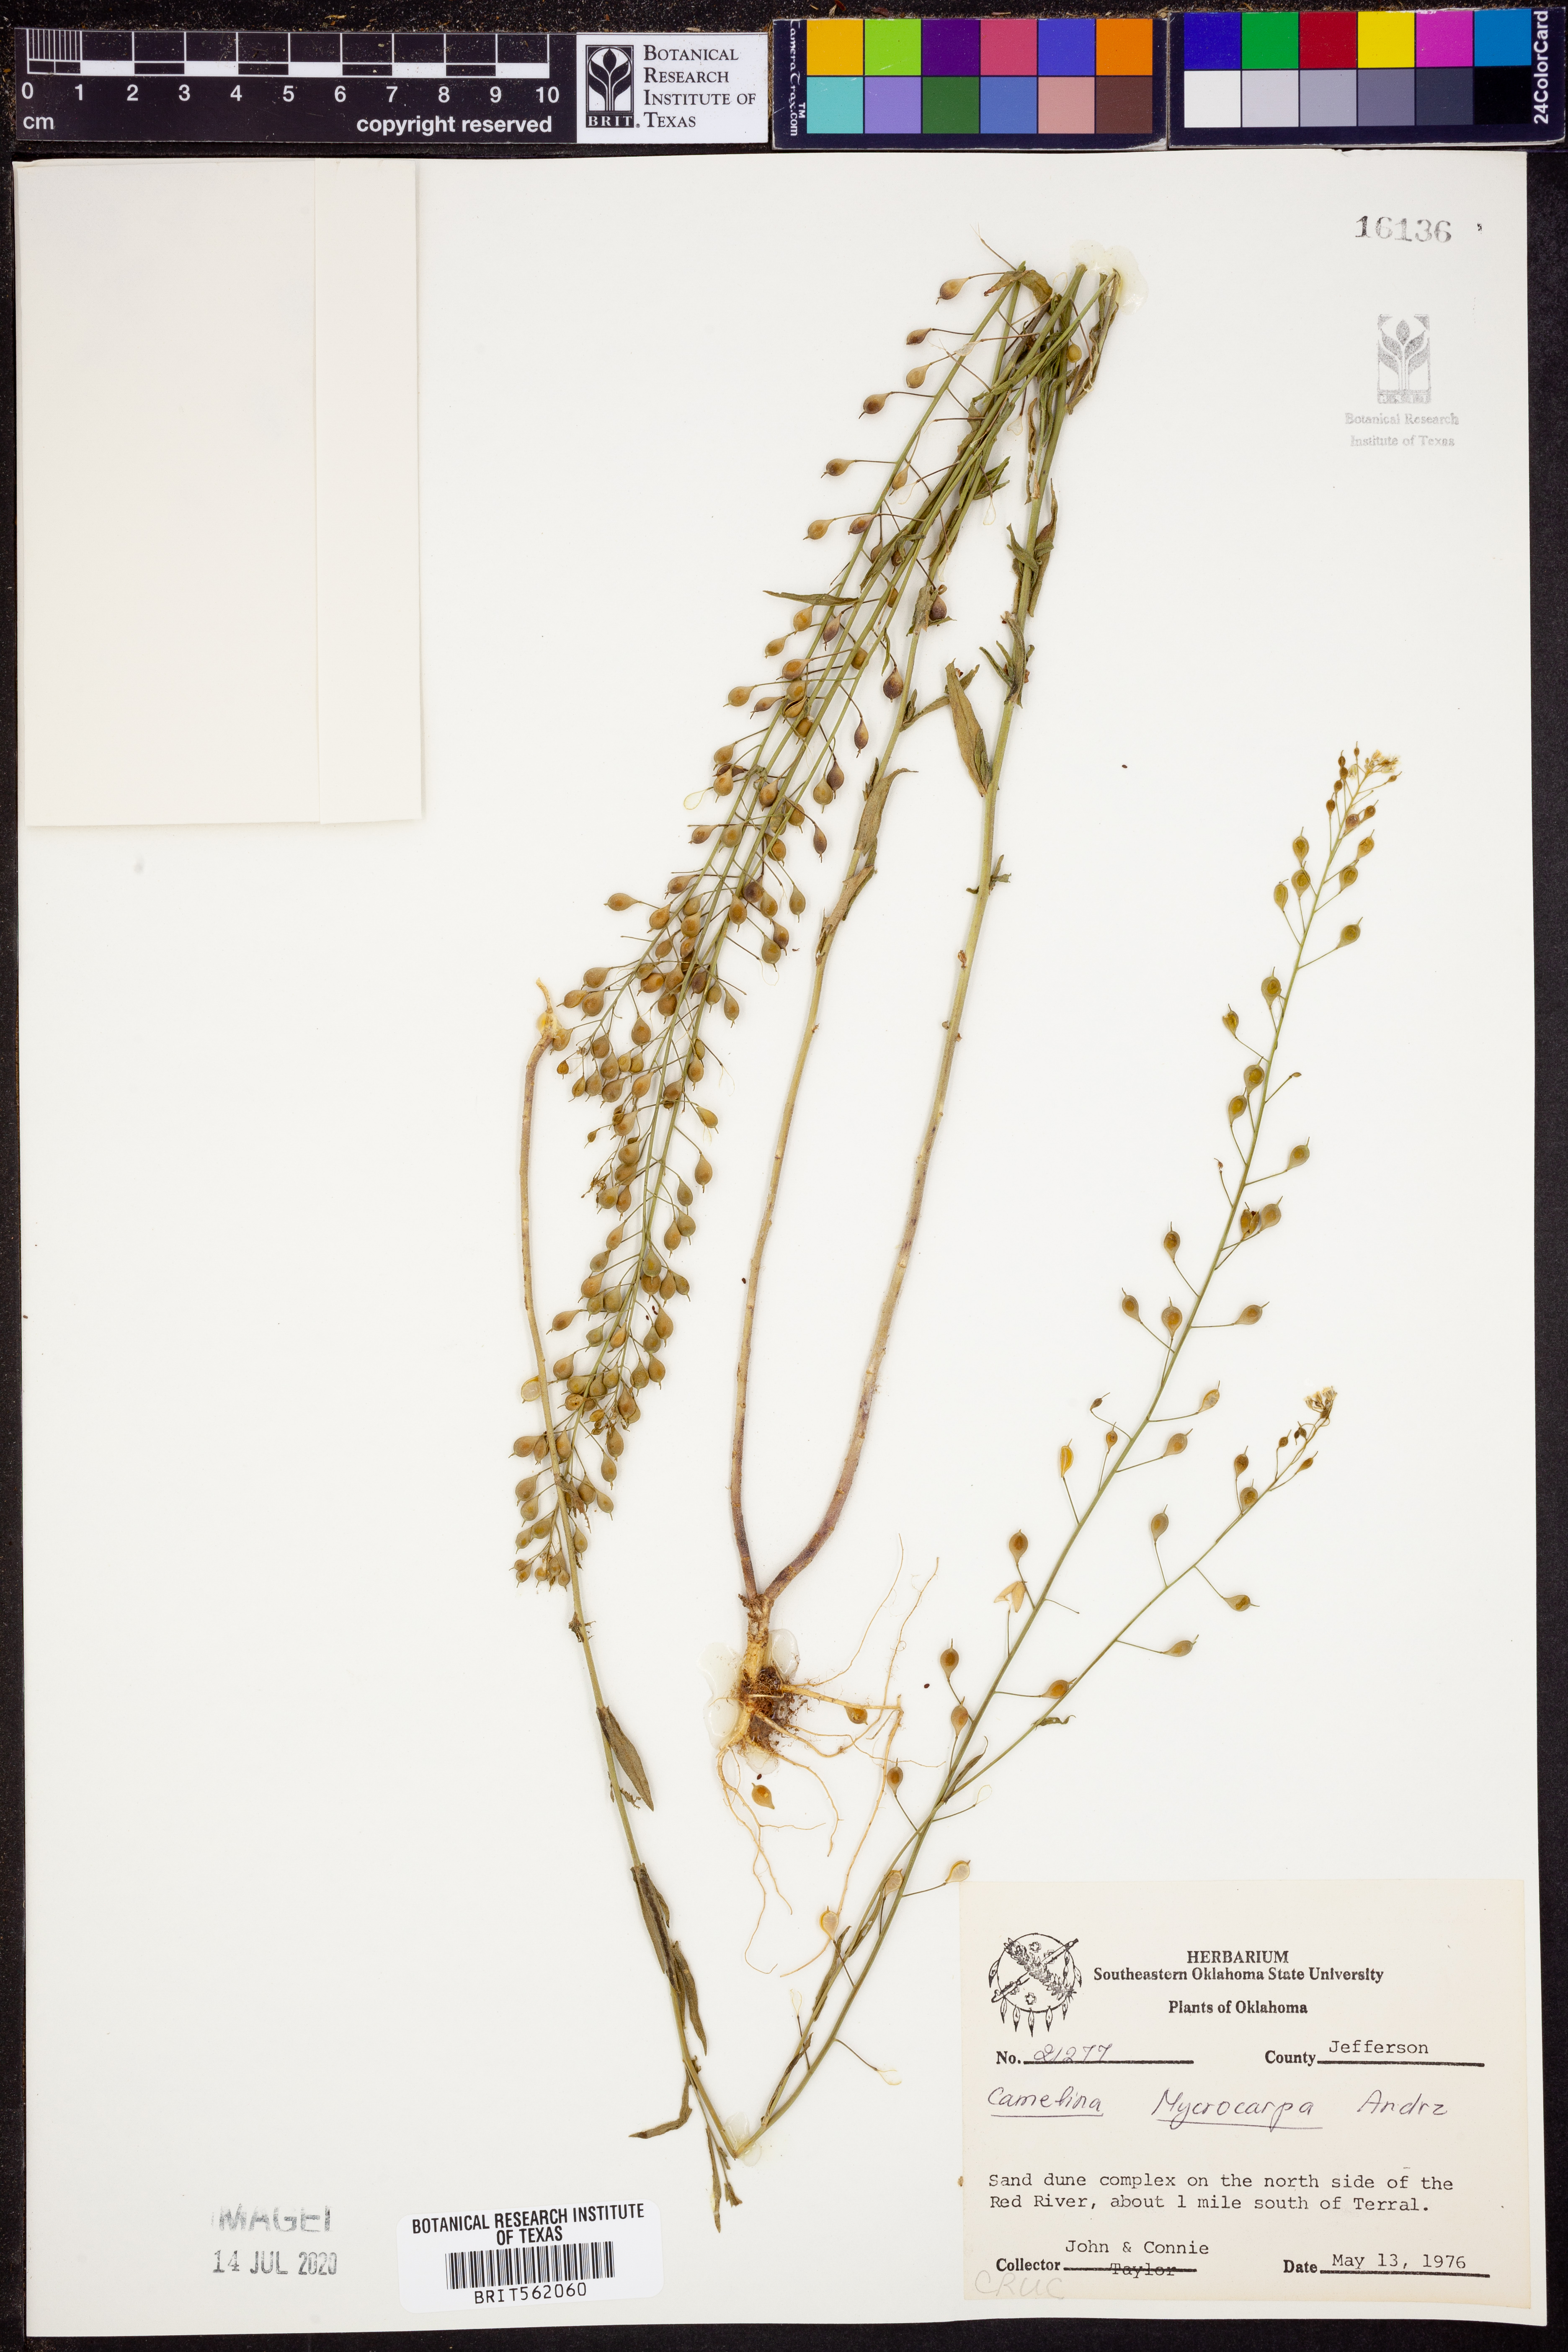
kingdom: Plantae
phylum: Tracheophyta
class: Magnoliopsida
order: Brassicales
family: Brassicaceae
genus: Camelina
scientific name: Camelina microcarpa
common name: Lesser gold-of-pleasure
